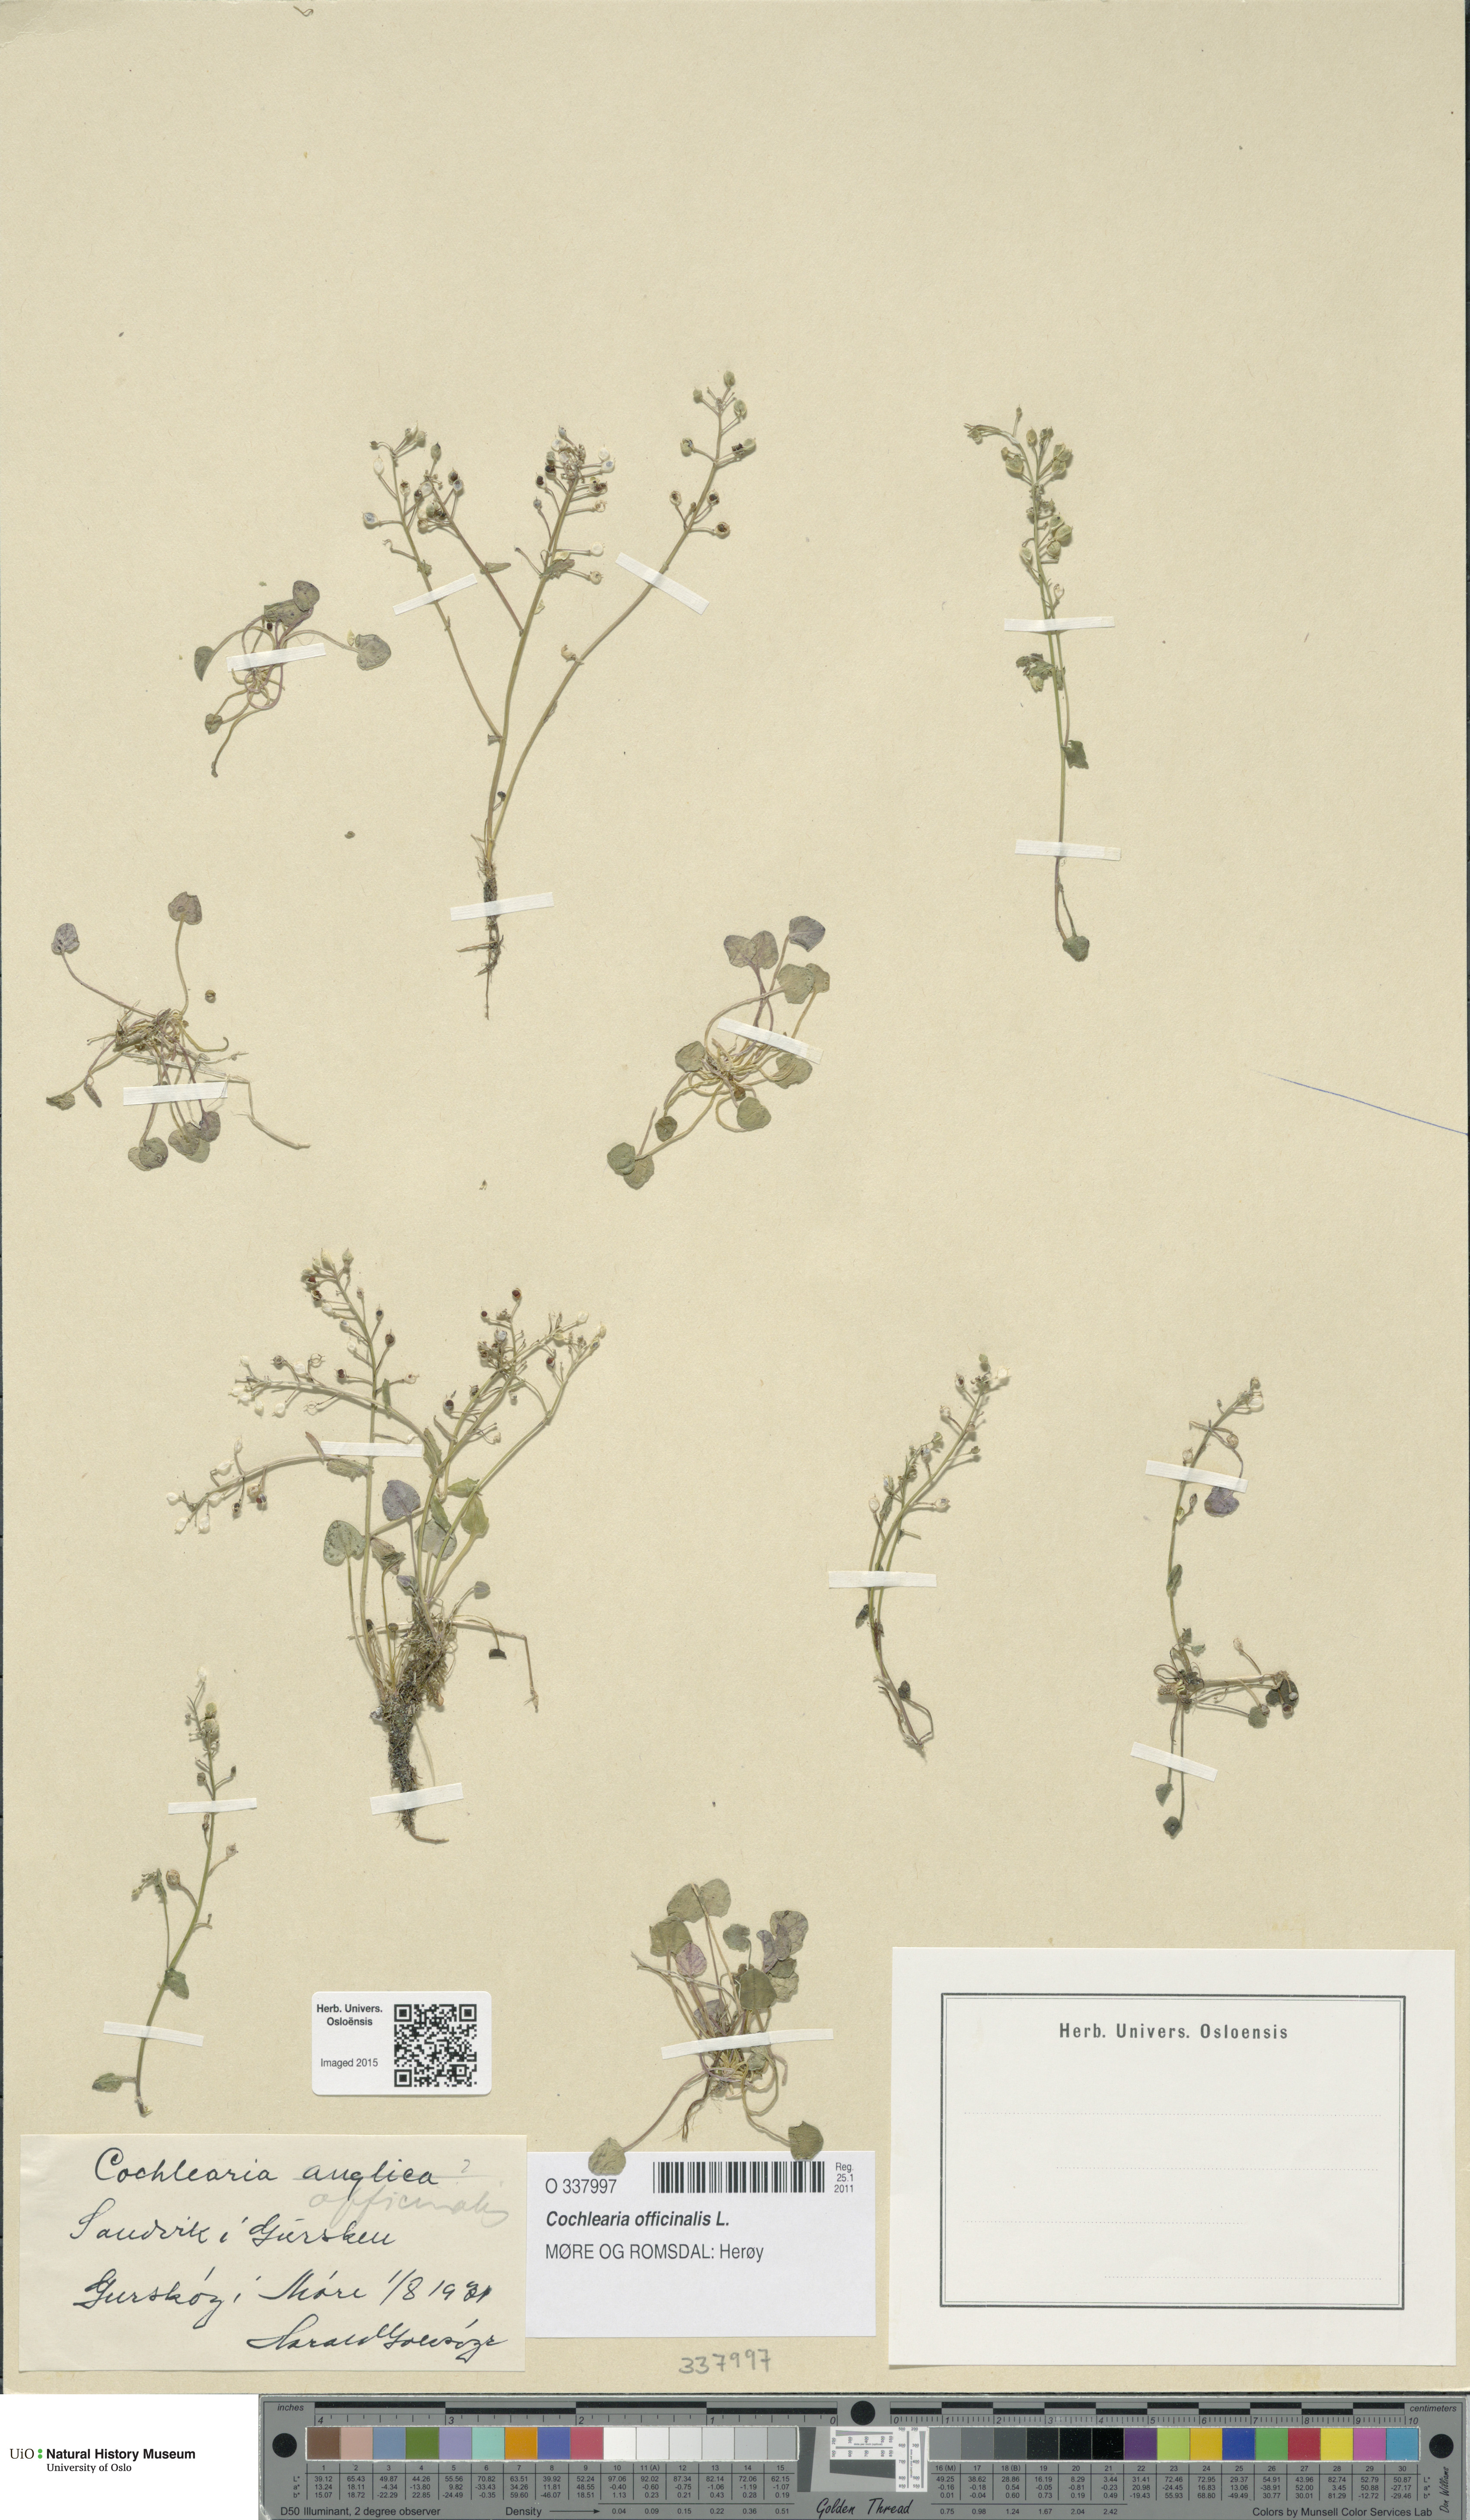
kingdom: Plantae
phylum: Tracheophyta
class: Magnoliopsida
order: Brassicales
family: Brassicaceae
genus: Cochlearia
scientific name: Cochlearia officinalis
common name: Scurvy-grass
